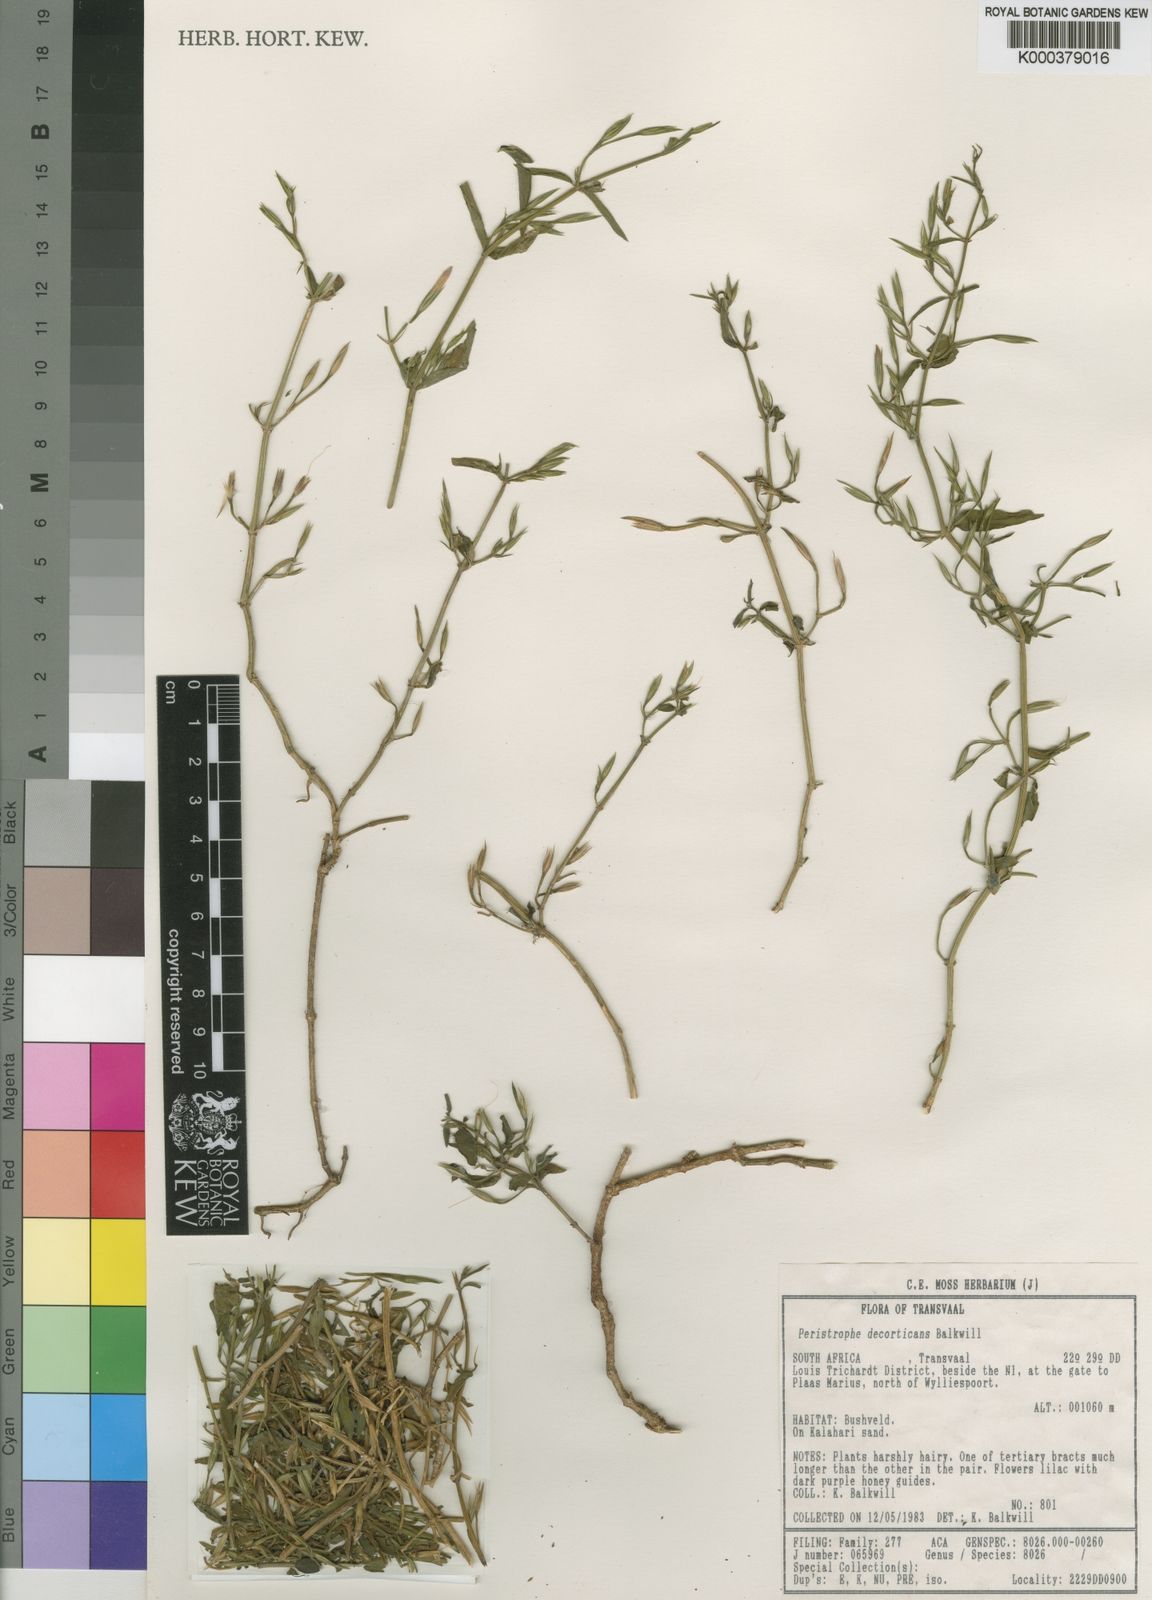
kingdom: Plantae
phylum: Tracheophyta
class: Magnoliopsida
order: Lamiales
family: Acanthaceae
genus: Dicliptera
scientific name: Dicliptera decorticans
